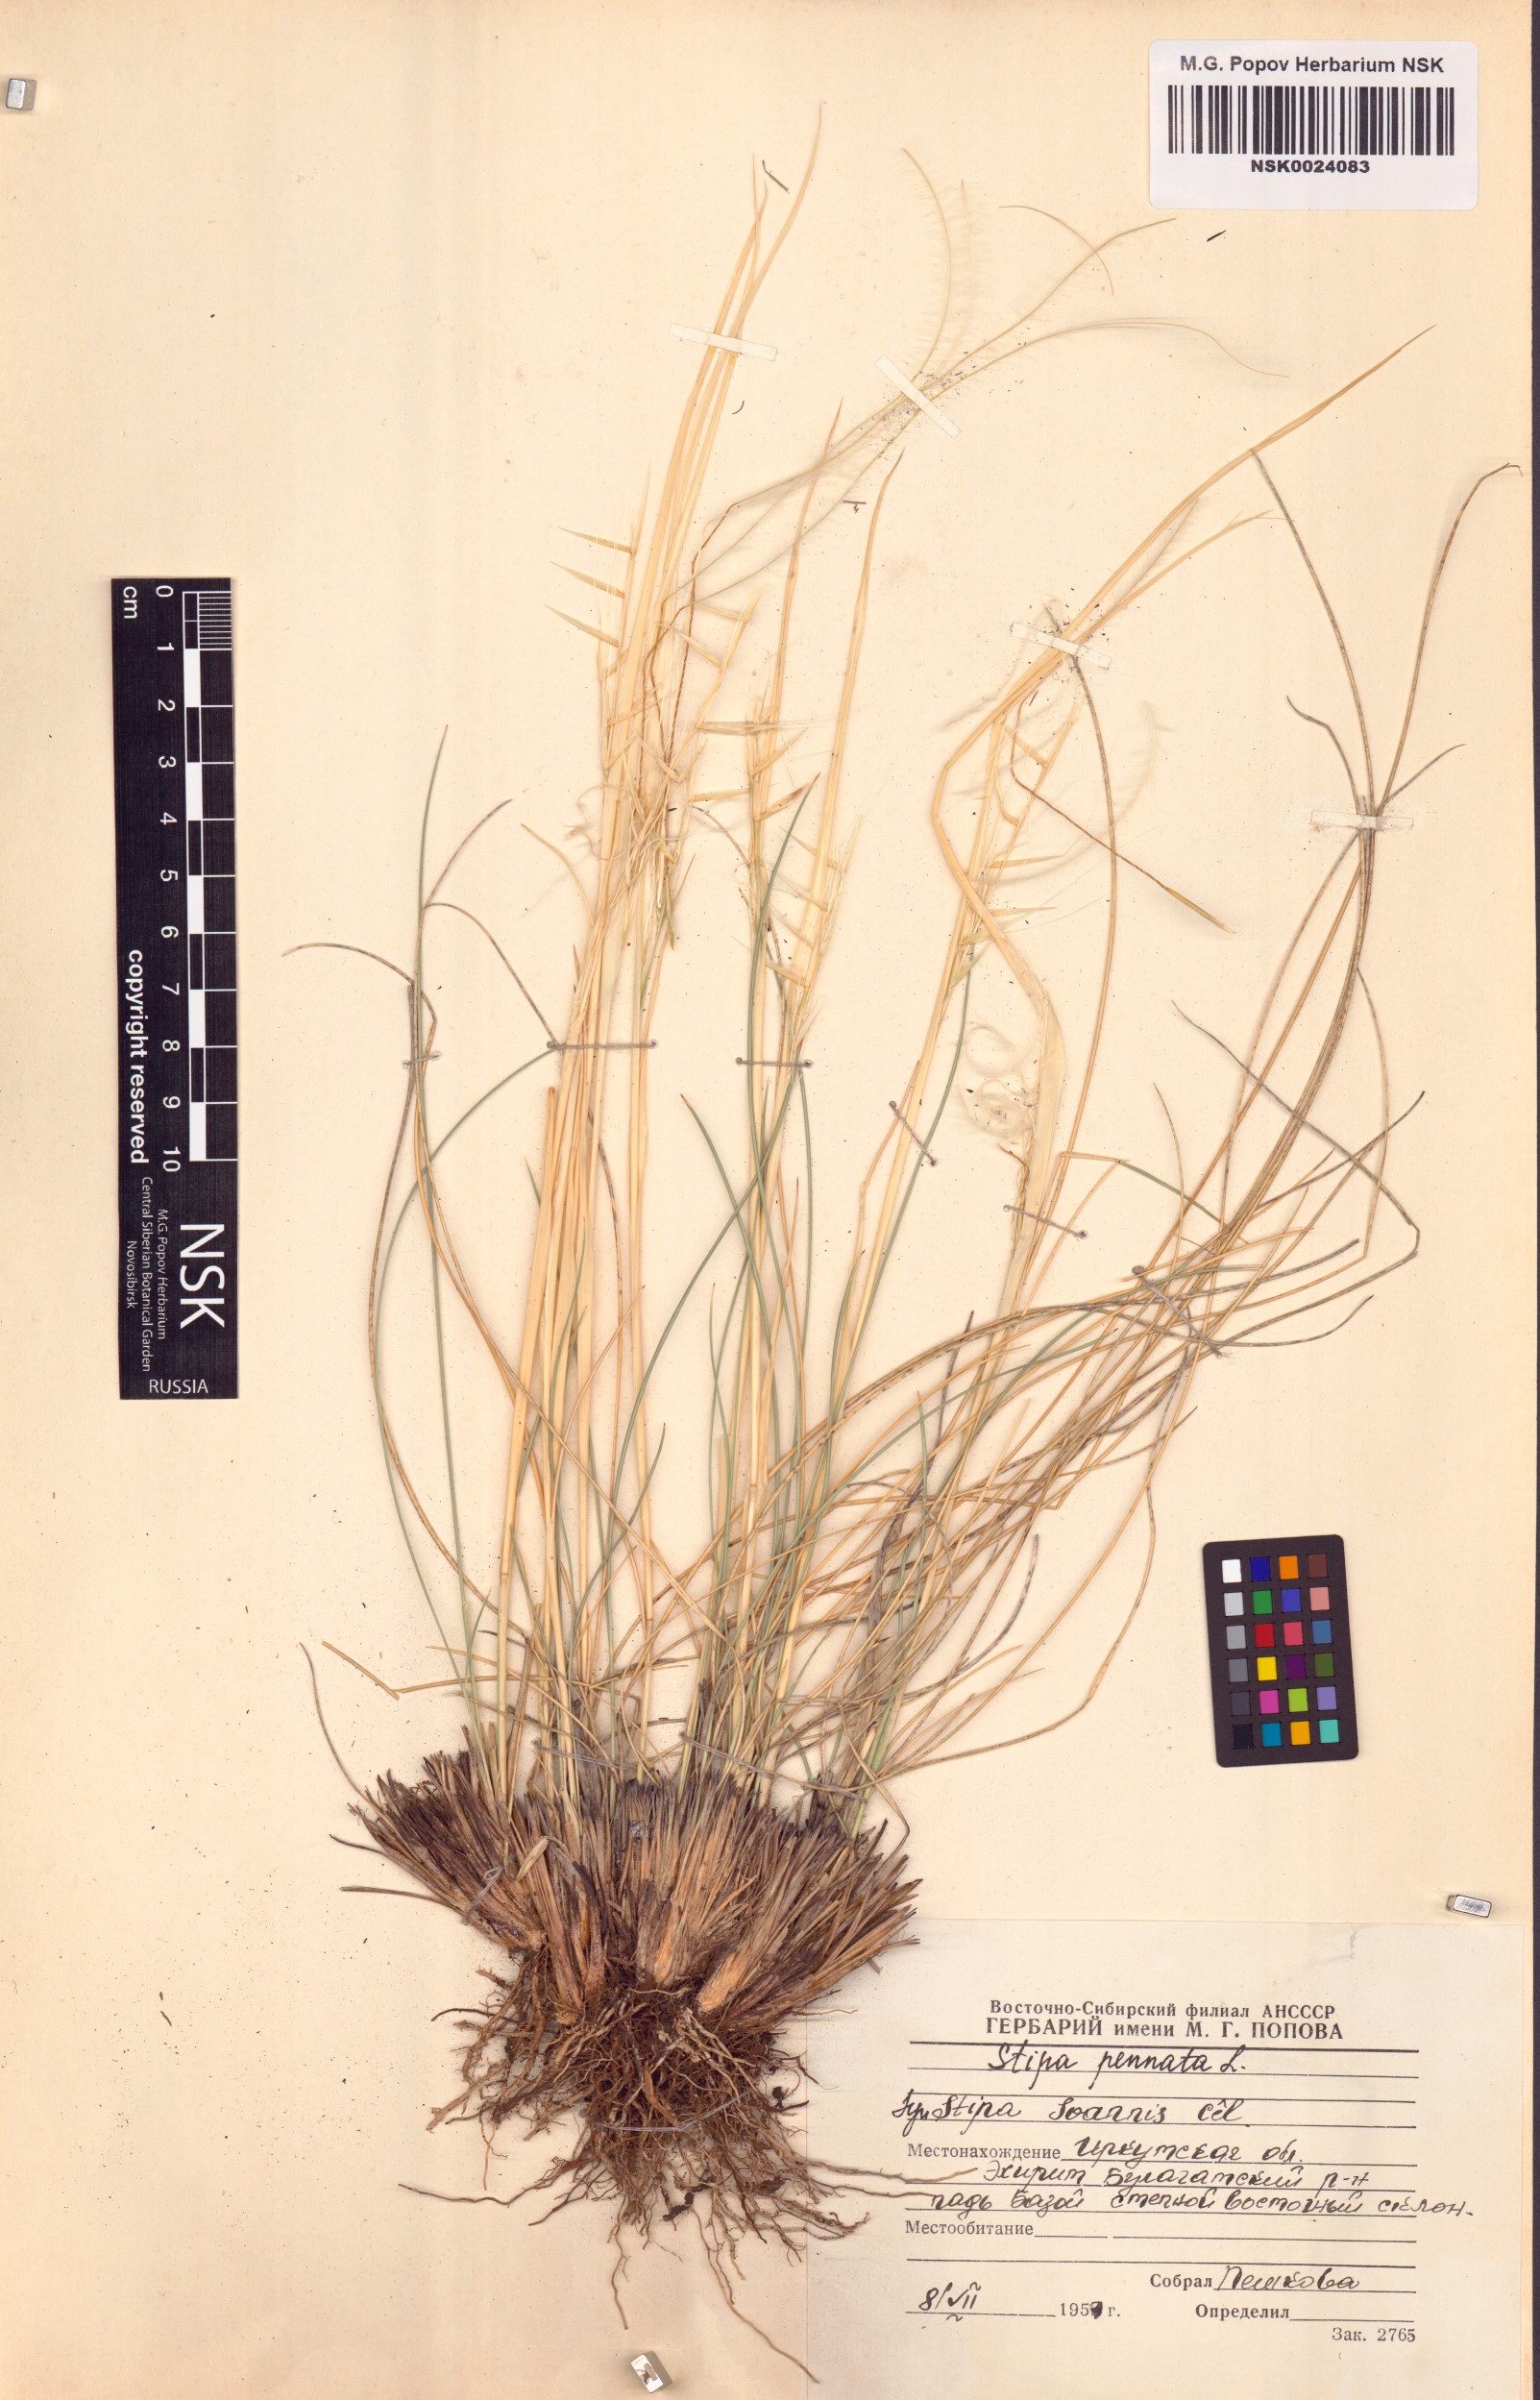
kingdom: Plantae
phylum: Tracheophyta
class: Liliopsida
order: Poales
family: Poaceae
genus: Stipa
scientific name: Stipa pennata
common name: European feather grass
